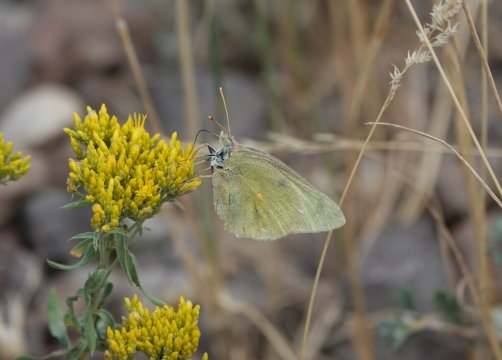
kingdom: Animalia
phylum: Arthropoda
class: Insecta
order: Lepidoptera
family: Pieridae
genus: Colias
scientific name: Colias
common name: Clouded Yellows
